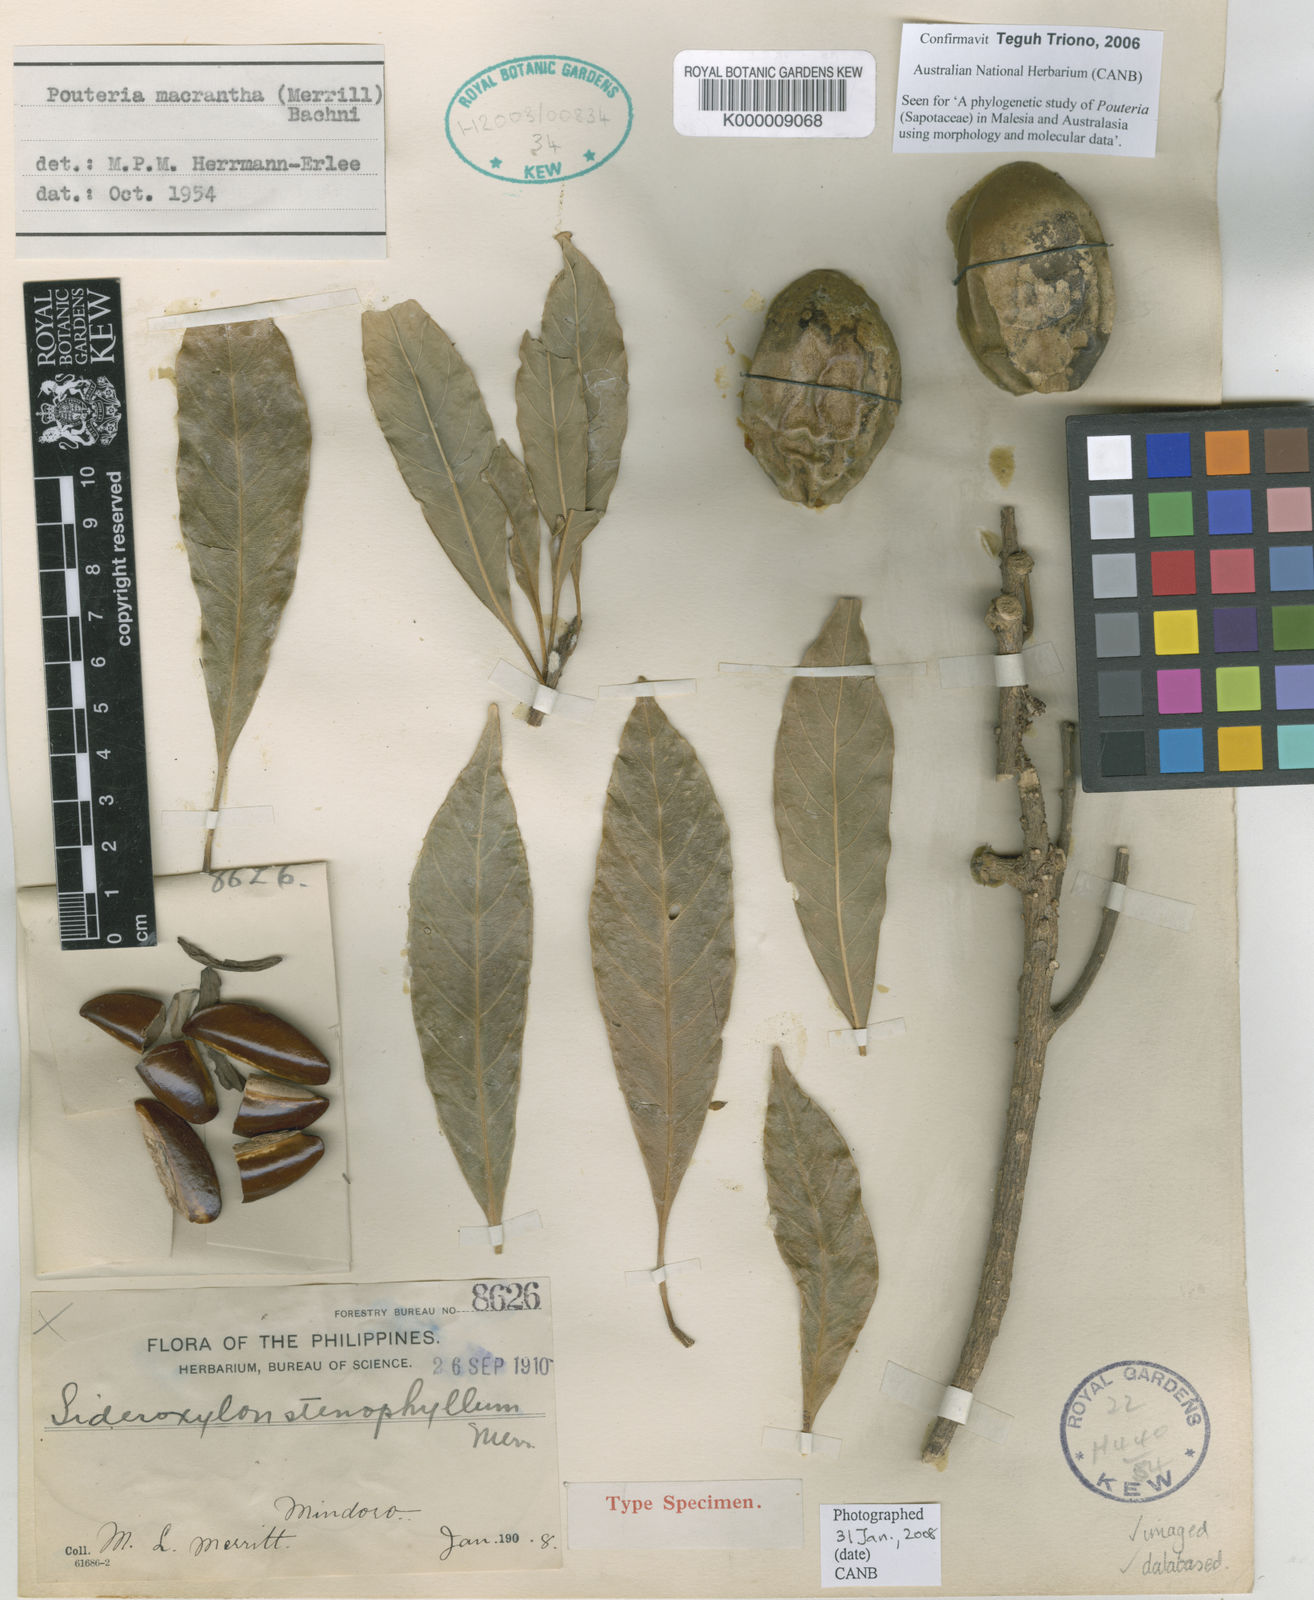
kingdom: Plantae
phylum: Tracheophyta
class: Magnoliopsida
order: Ericales
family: Sapotaceae
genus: Planchonella
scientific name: Planchonella macrantha
